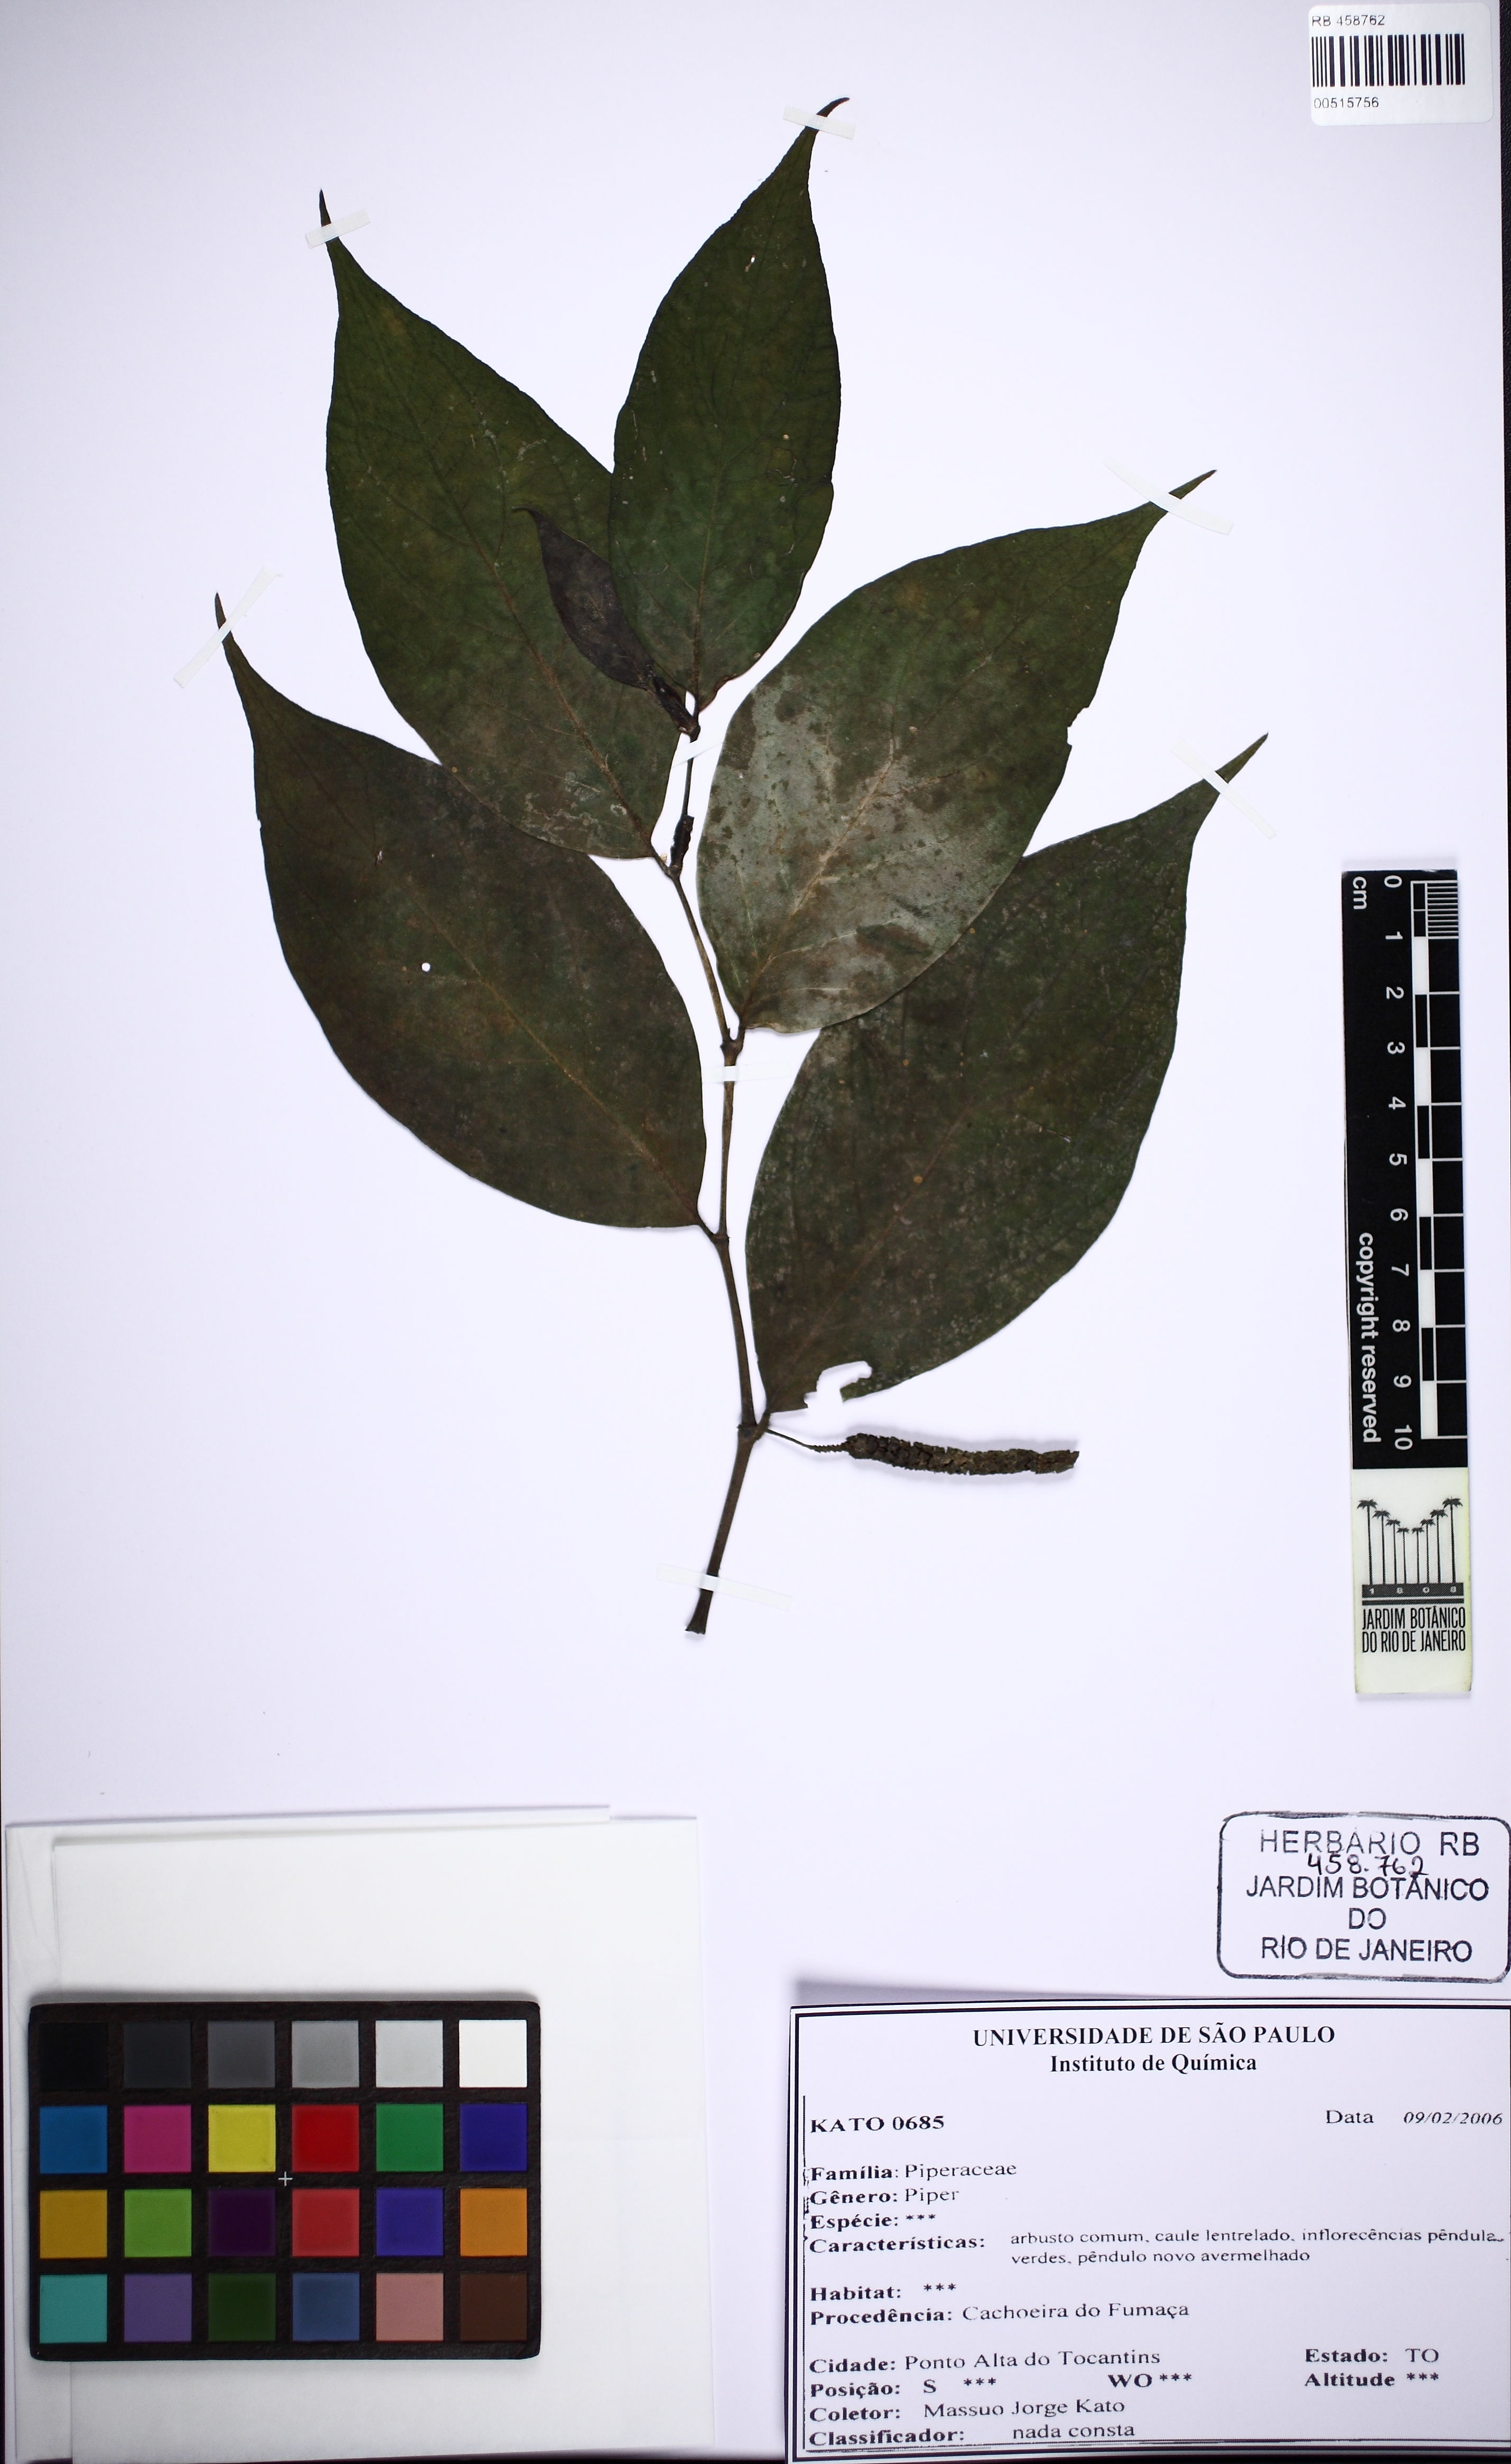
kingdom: Plantae
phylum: Tracheophyta
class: Magnoliopsida
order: Piperales
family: Piperaceae
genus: Piper
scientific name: Piper
